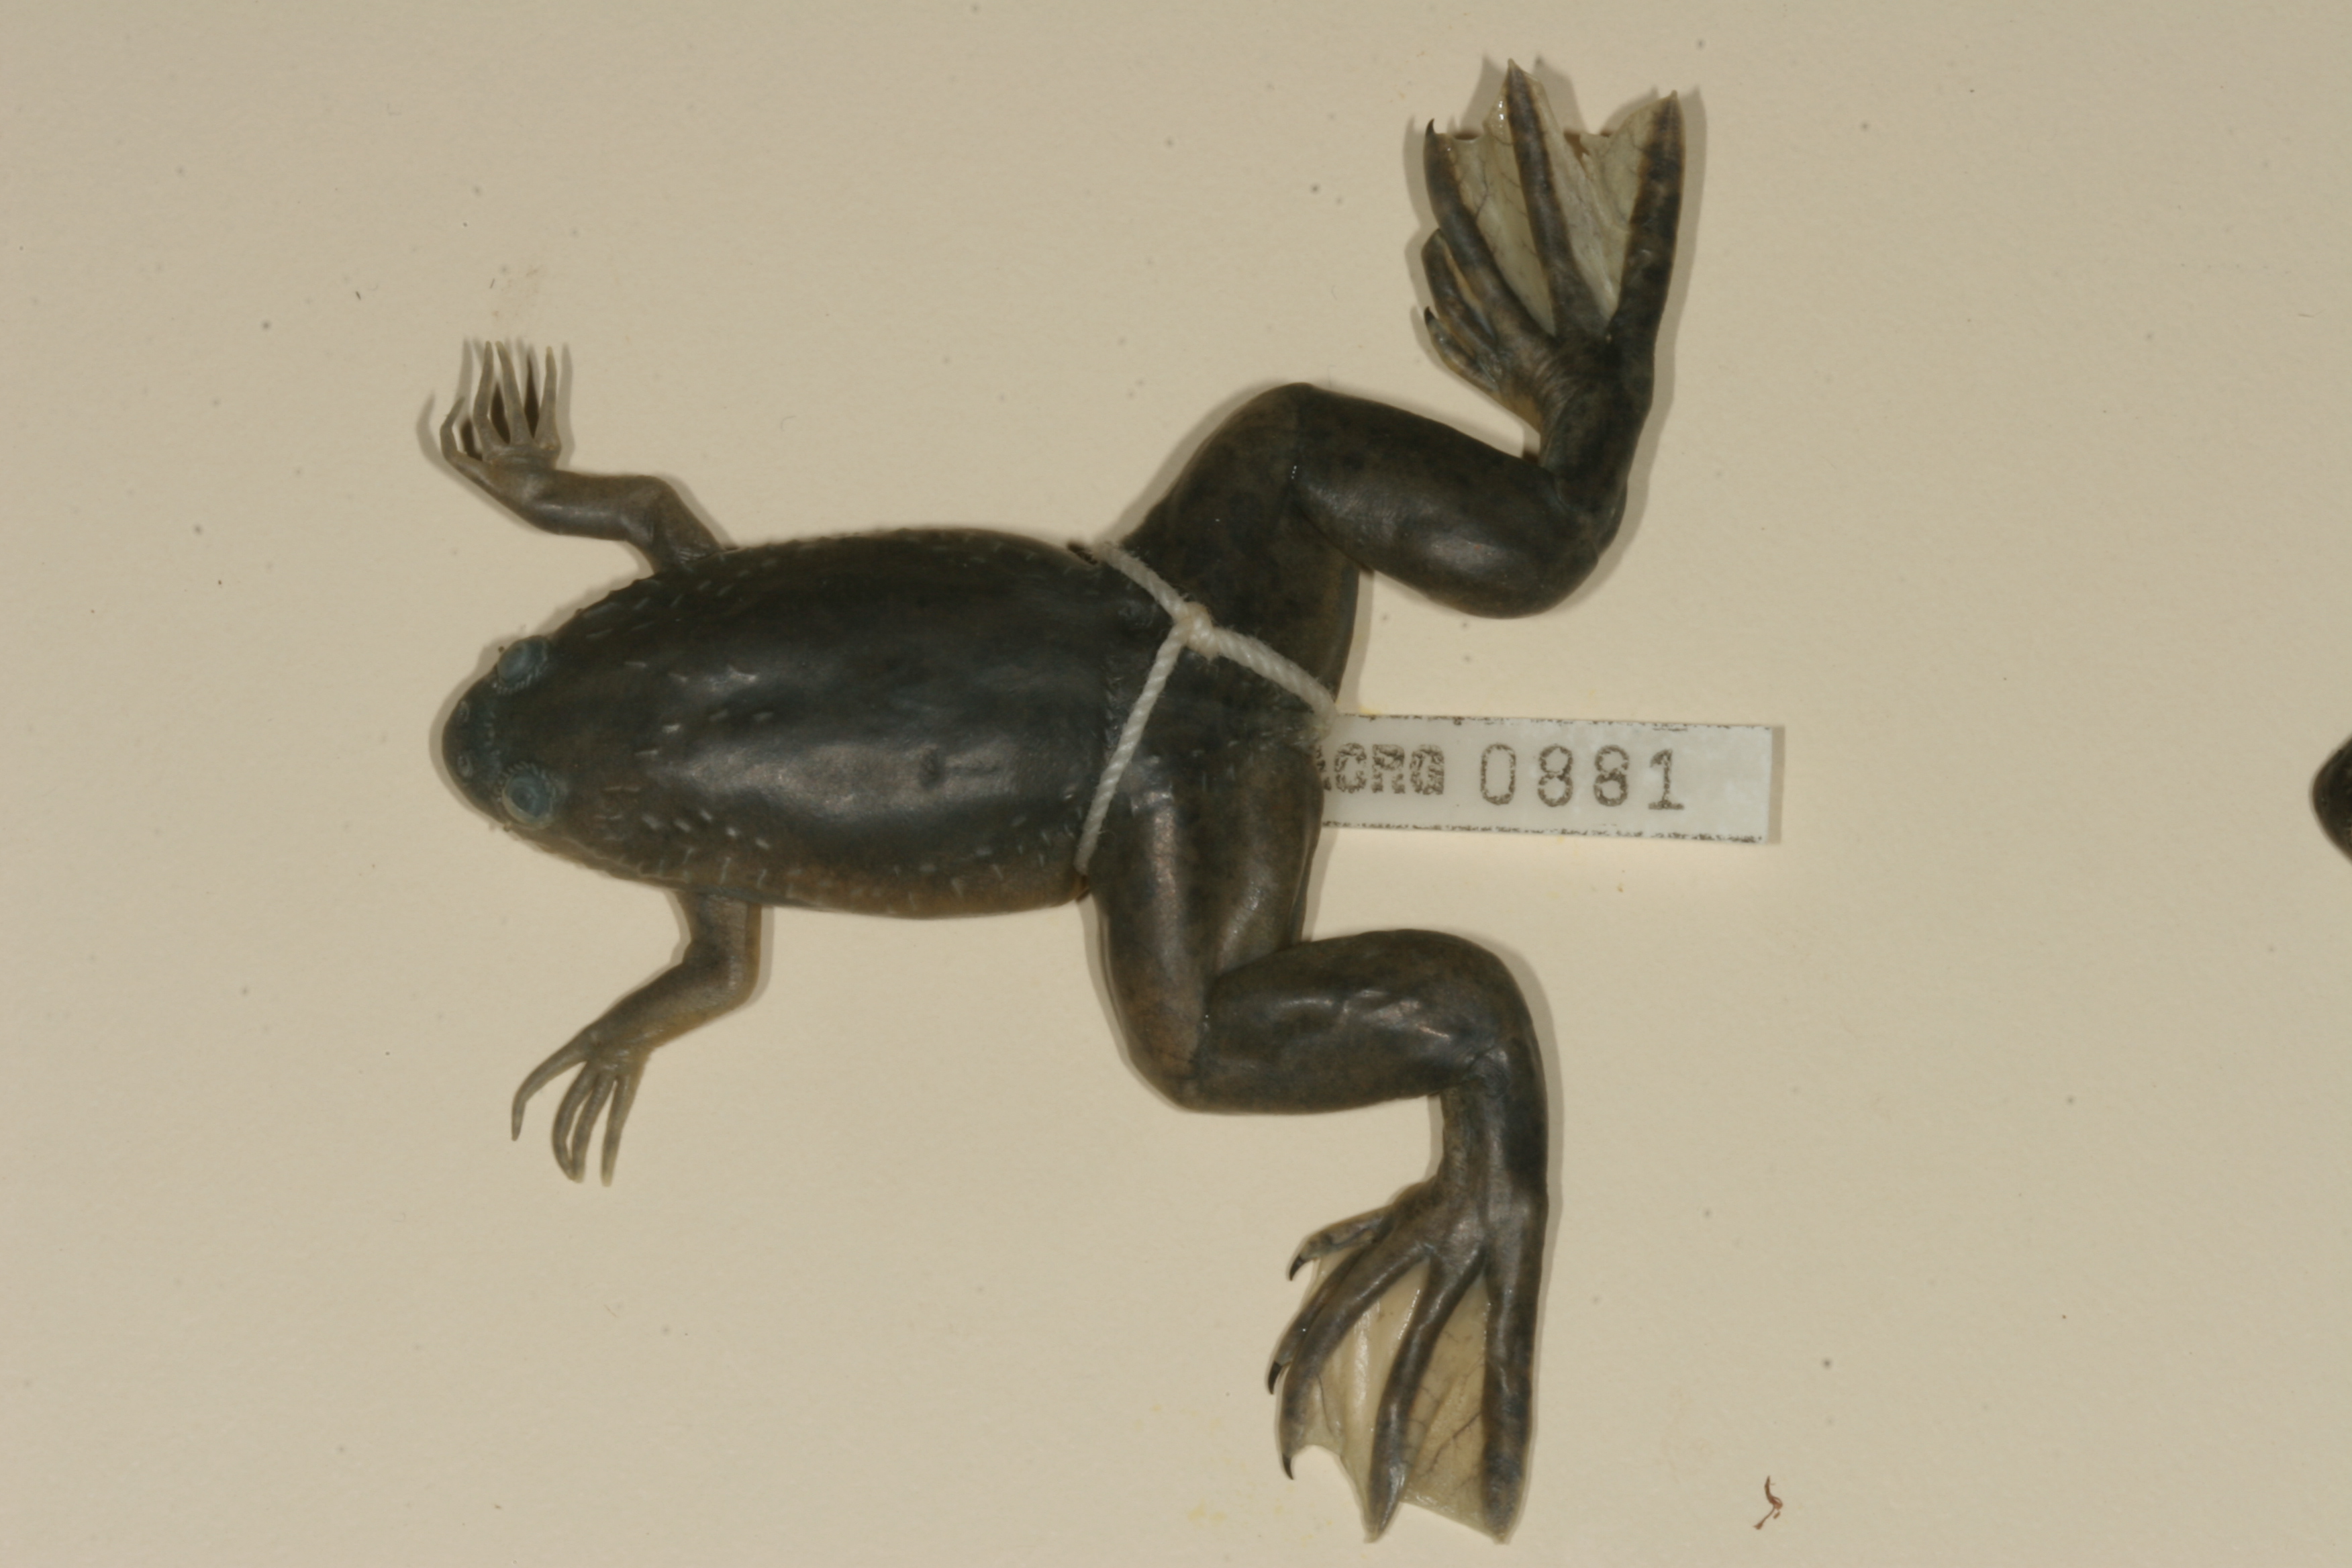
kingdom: Animalia
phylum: Chordata
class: Amphibia
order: Anura
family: Pipidae
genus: Xenopus
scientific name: Xenopus laevis
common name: African clawed frog
